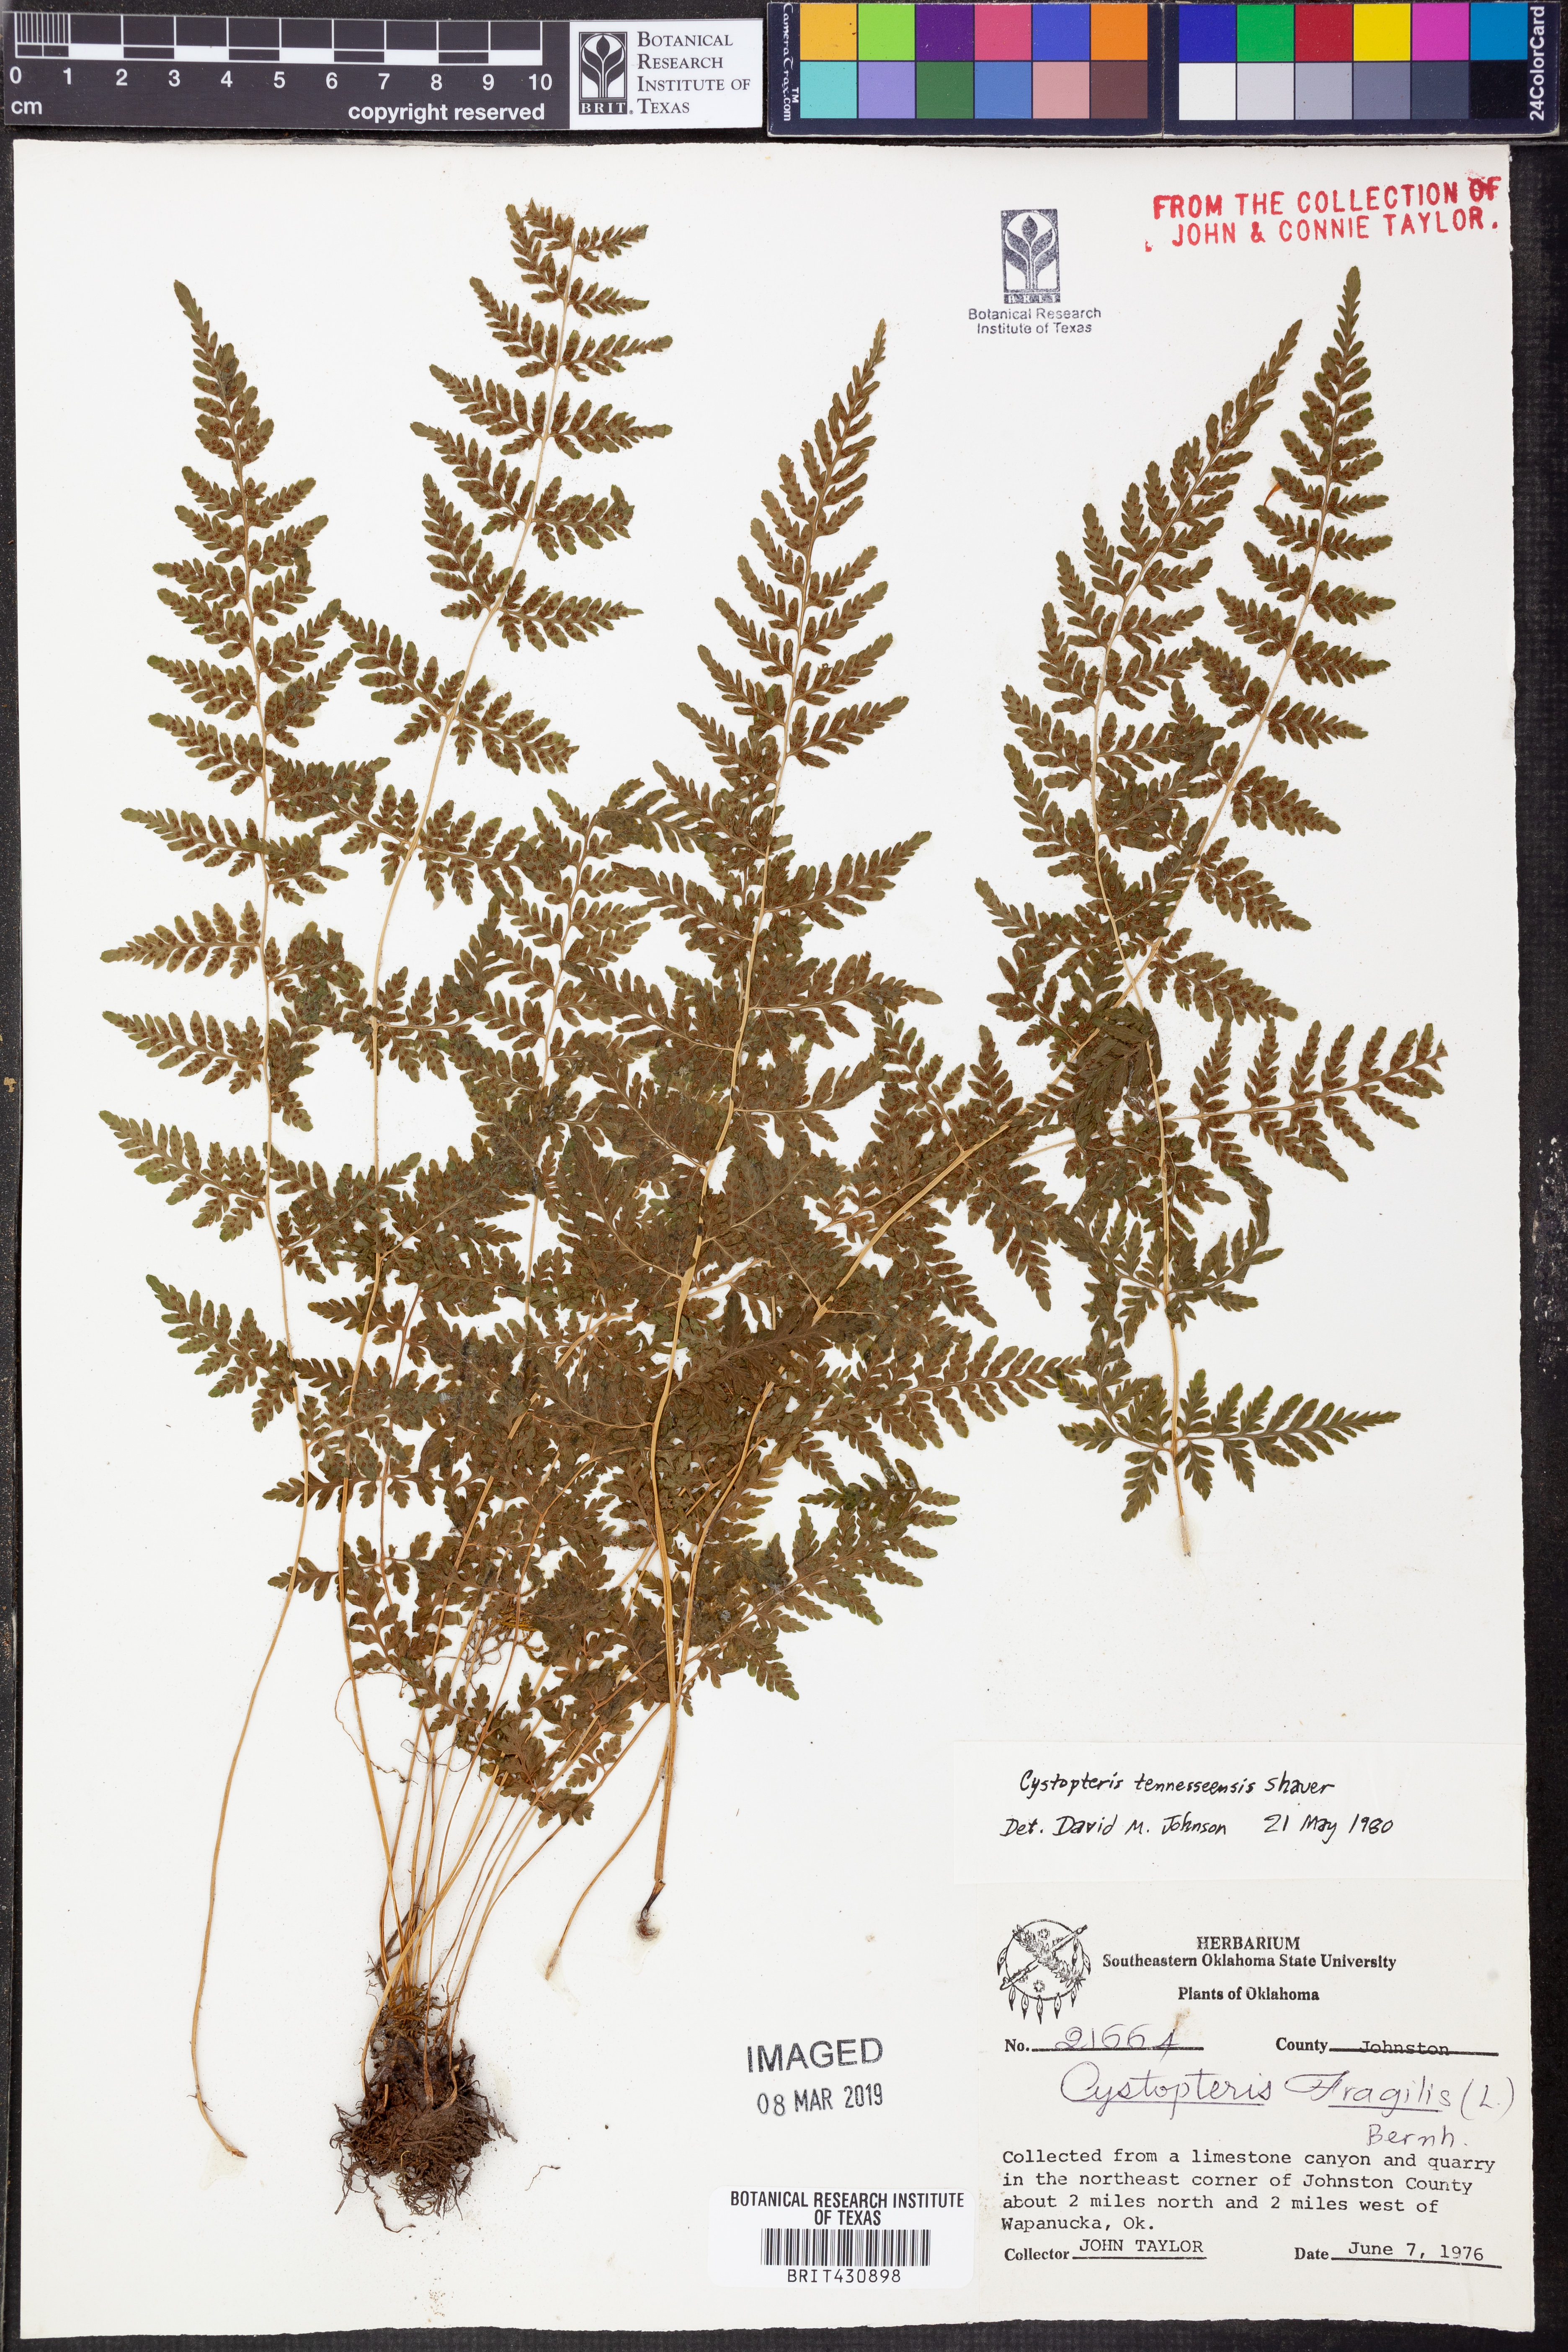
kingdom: Plantae
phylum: Tracheophyta
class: Polypodiopsida
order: Polypodiales
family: Cystopteridaceae
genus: Cystopteris
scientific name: Cystopteris tennesseensis
